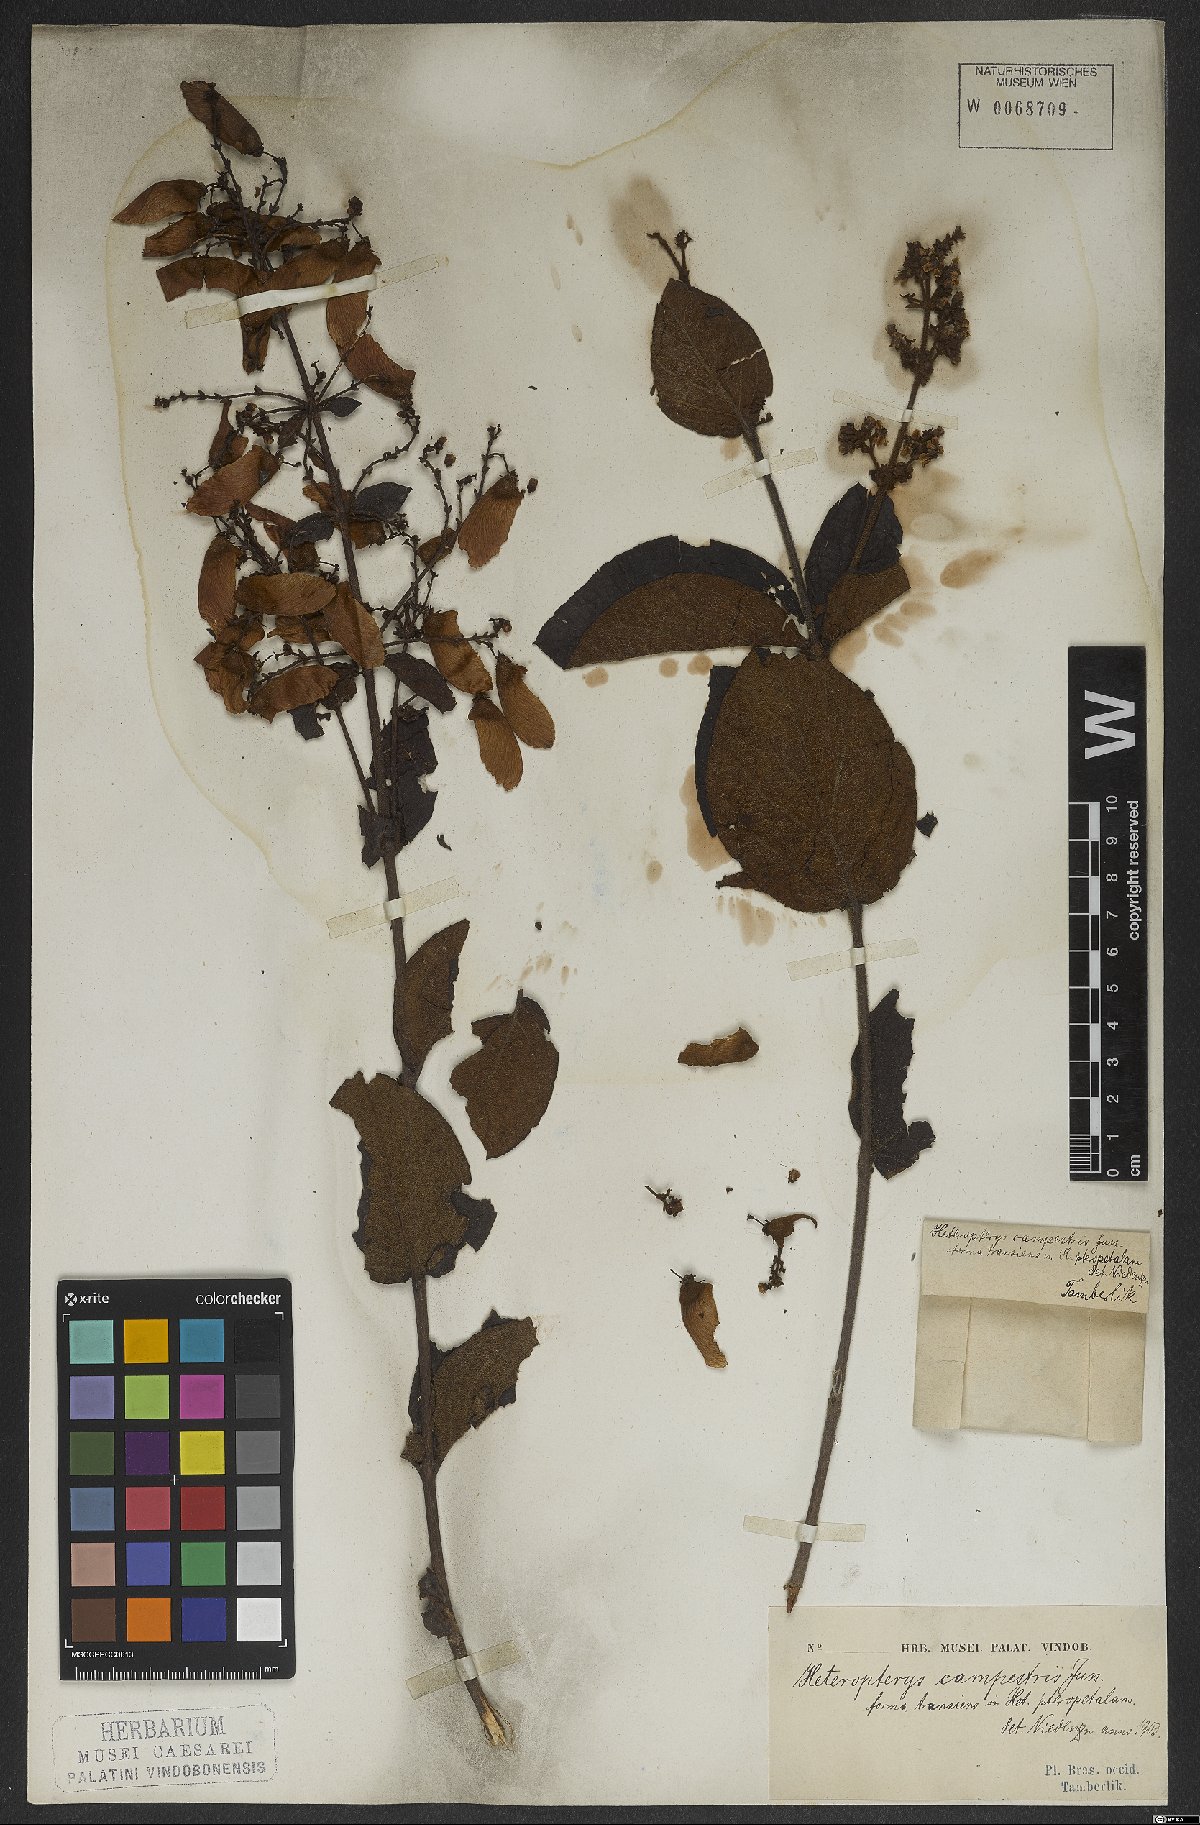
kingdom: Plantae
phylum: Tracheophyta
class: Magnoliopsida
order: Malpighiales
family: Malpighiaceae
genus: Heteropterys
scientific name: Heteropterys campestris
